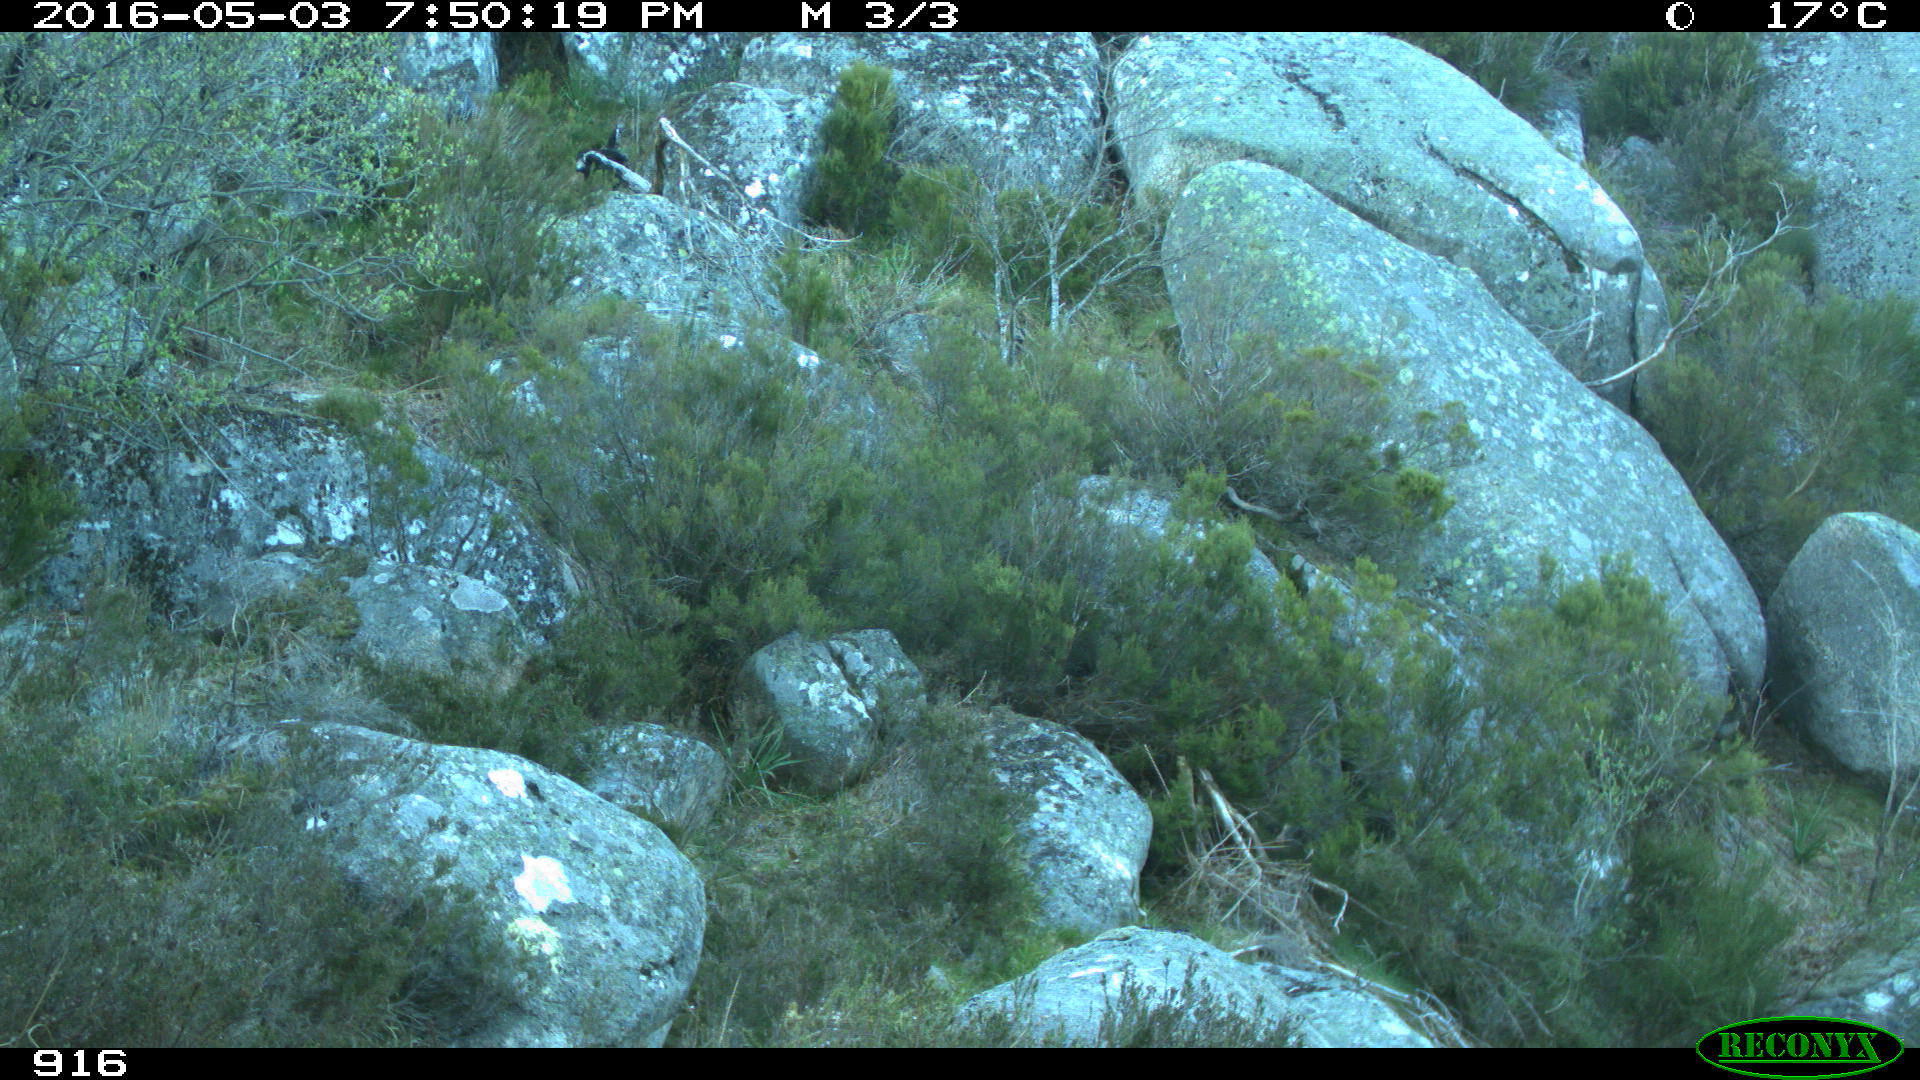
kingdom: Animalia
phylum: Chordata
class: Mammalia
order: Artiodactyla
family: Suidae
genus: Sus
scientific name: Sus scrofa
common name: Wild boar
